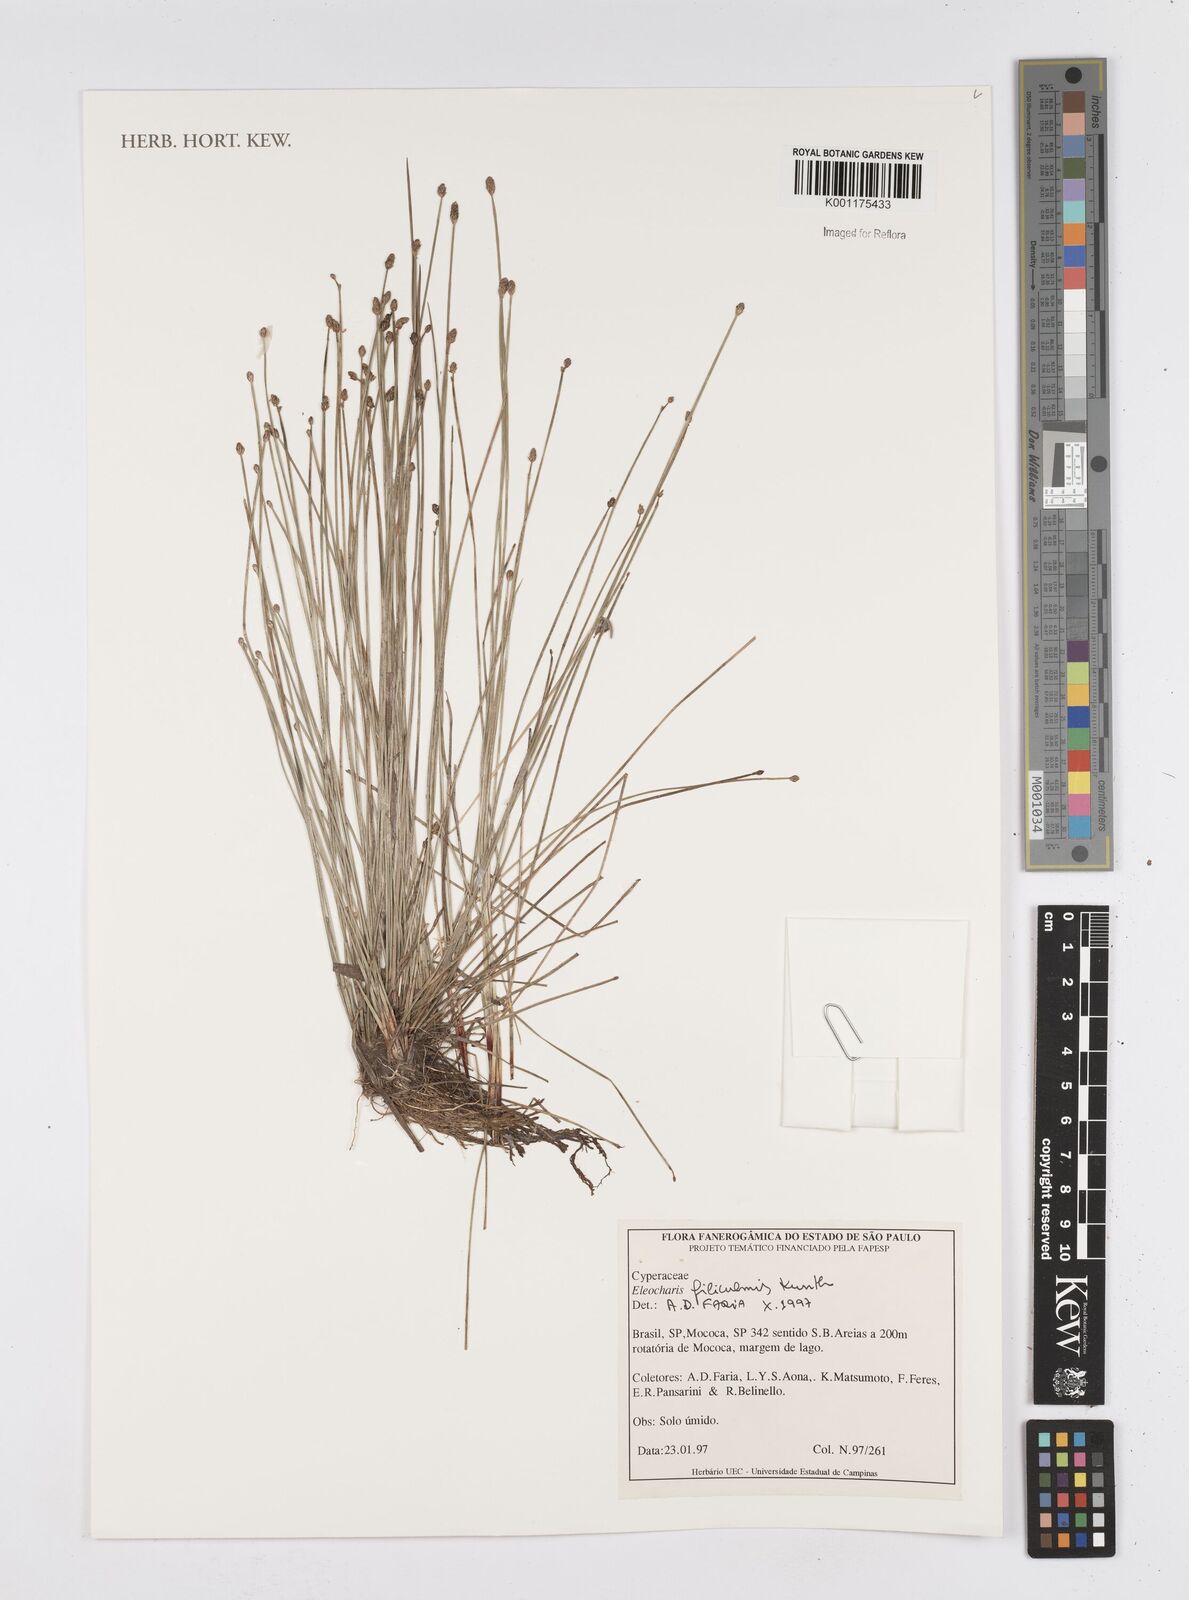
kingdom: Plantae
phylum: Tracheophyta
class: Liliopsida
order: Poales
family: Cyperaceae
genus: Eleocharis
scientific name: Eleocharis filiculmis
